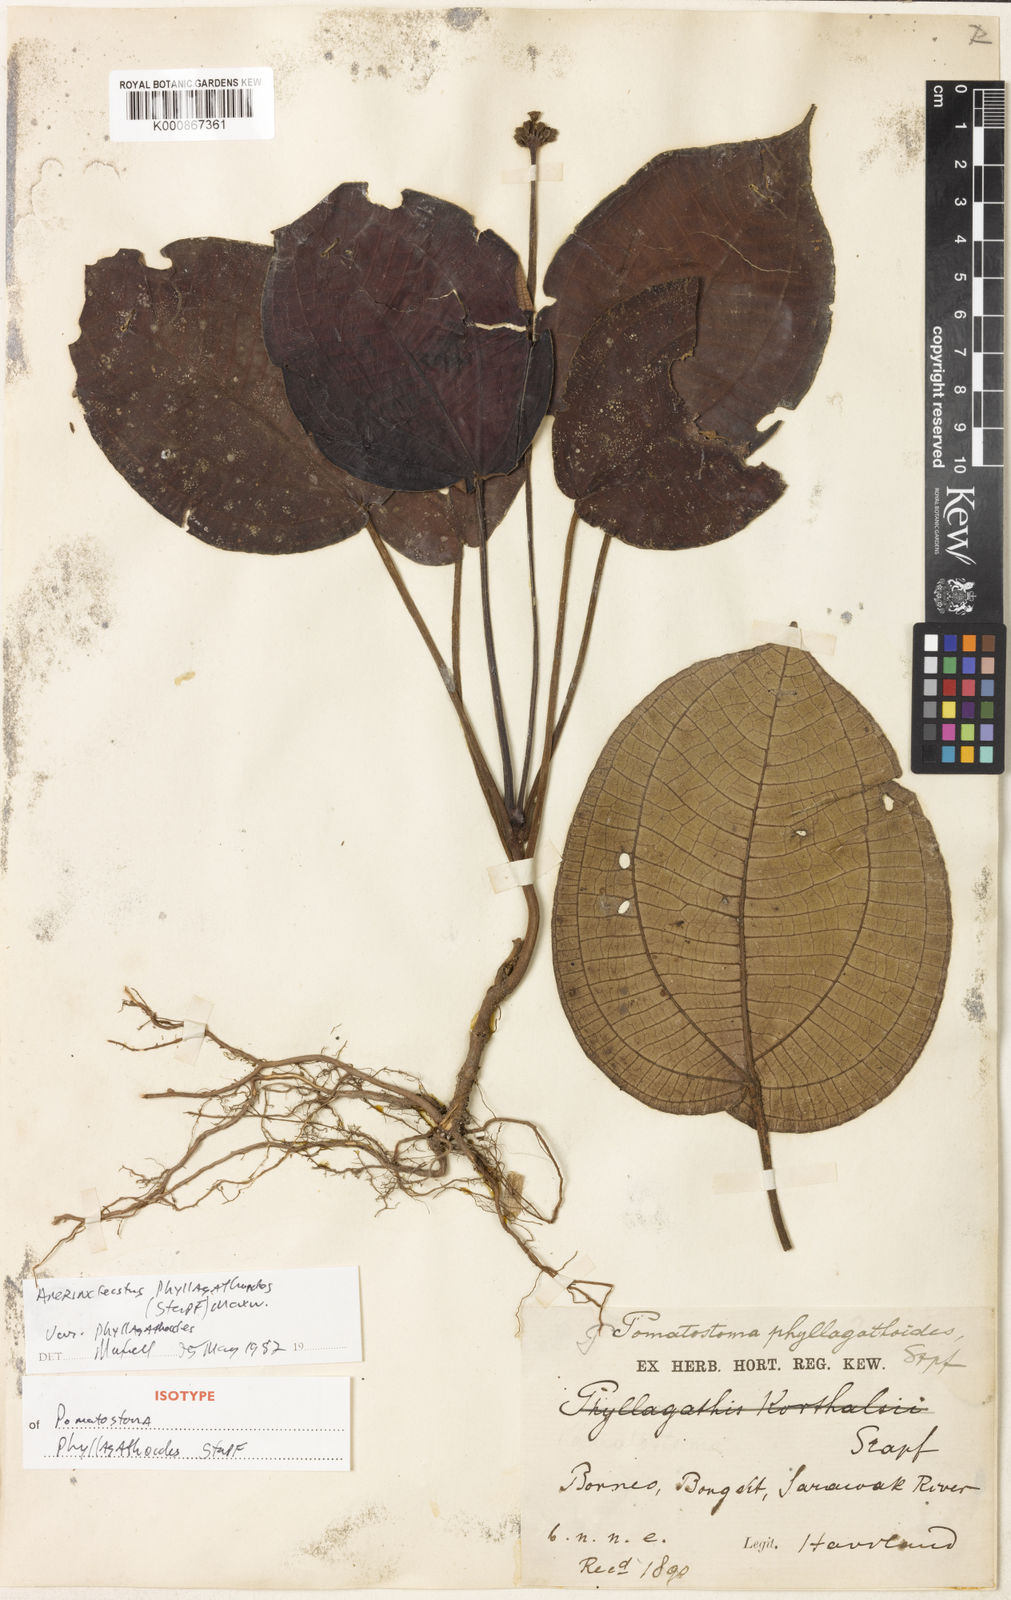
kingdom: Plantae
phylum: Tracheophyta
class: Magnoliopsida
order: Myrtales
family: Melastomataceae
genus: Anerincleistus
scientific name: Anerincleistus phyllagathoides
